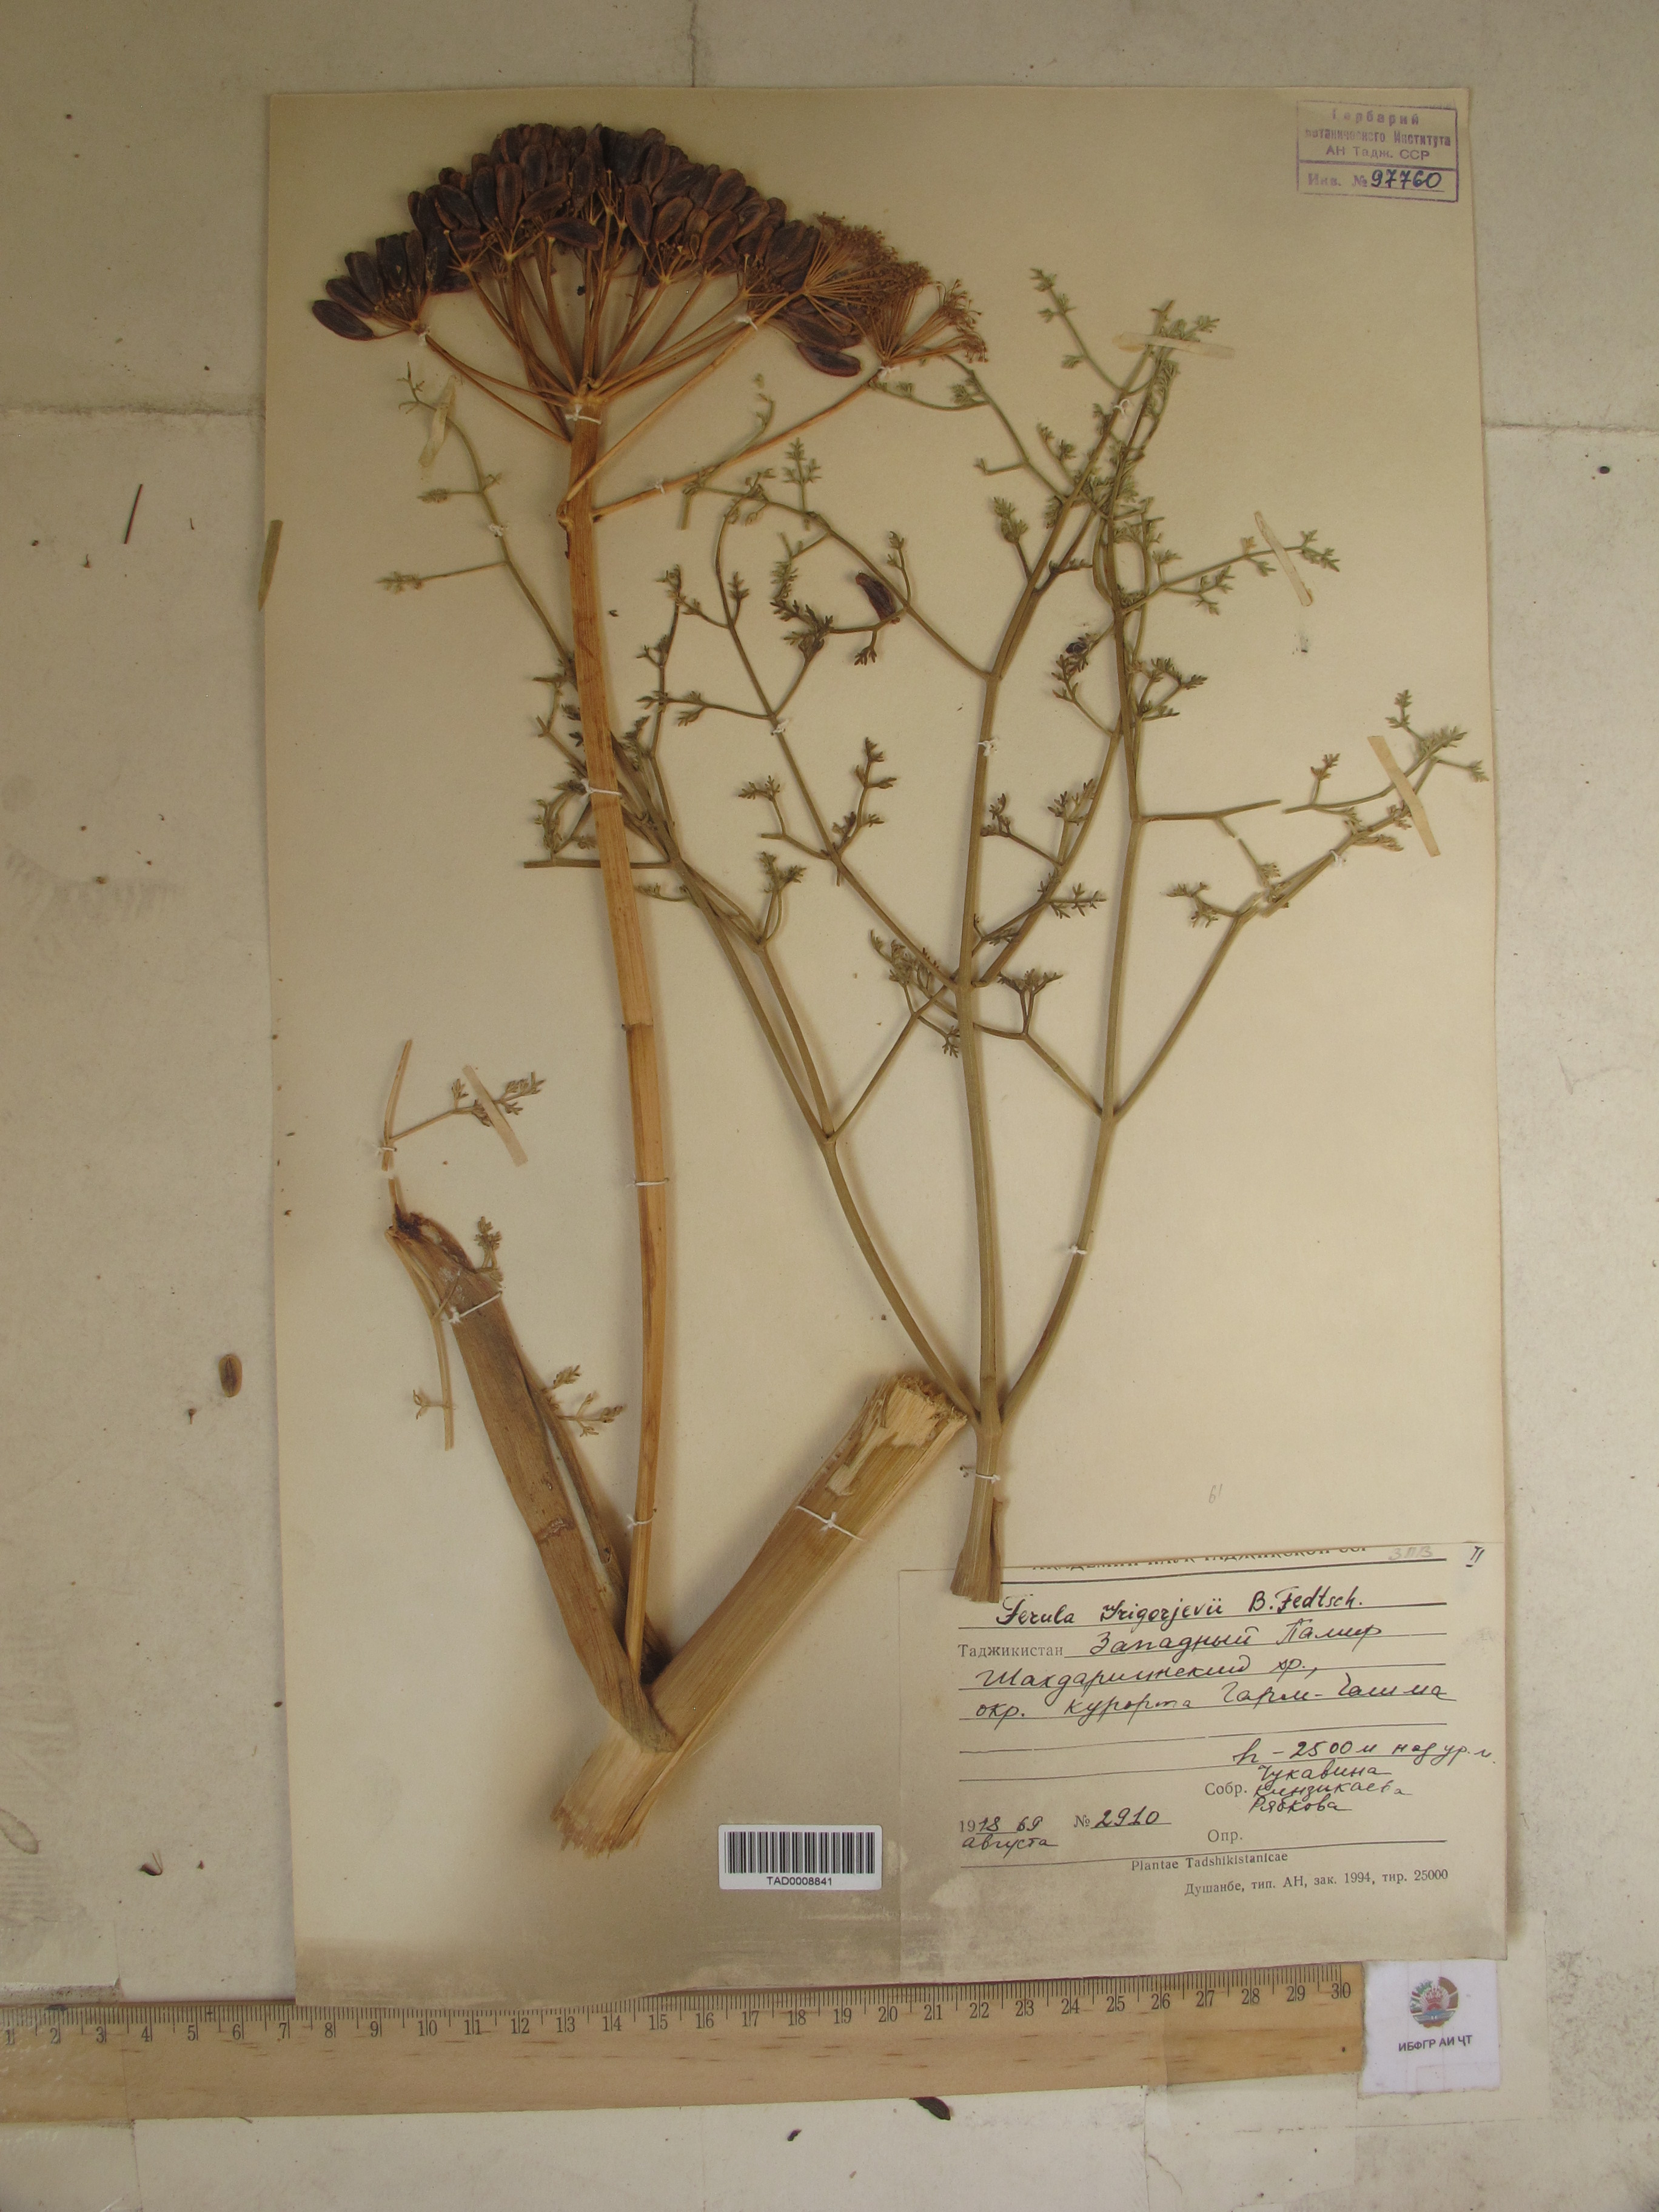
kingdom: Plantae
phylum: Tracheophyta
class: Magnoliopsida
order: Apiales
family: Apiaceae
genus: Ferula
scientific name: Ferula grigoriewii
